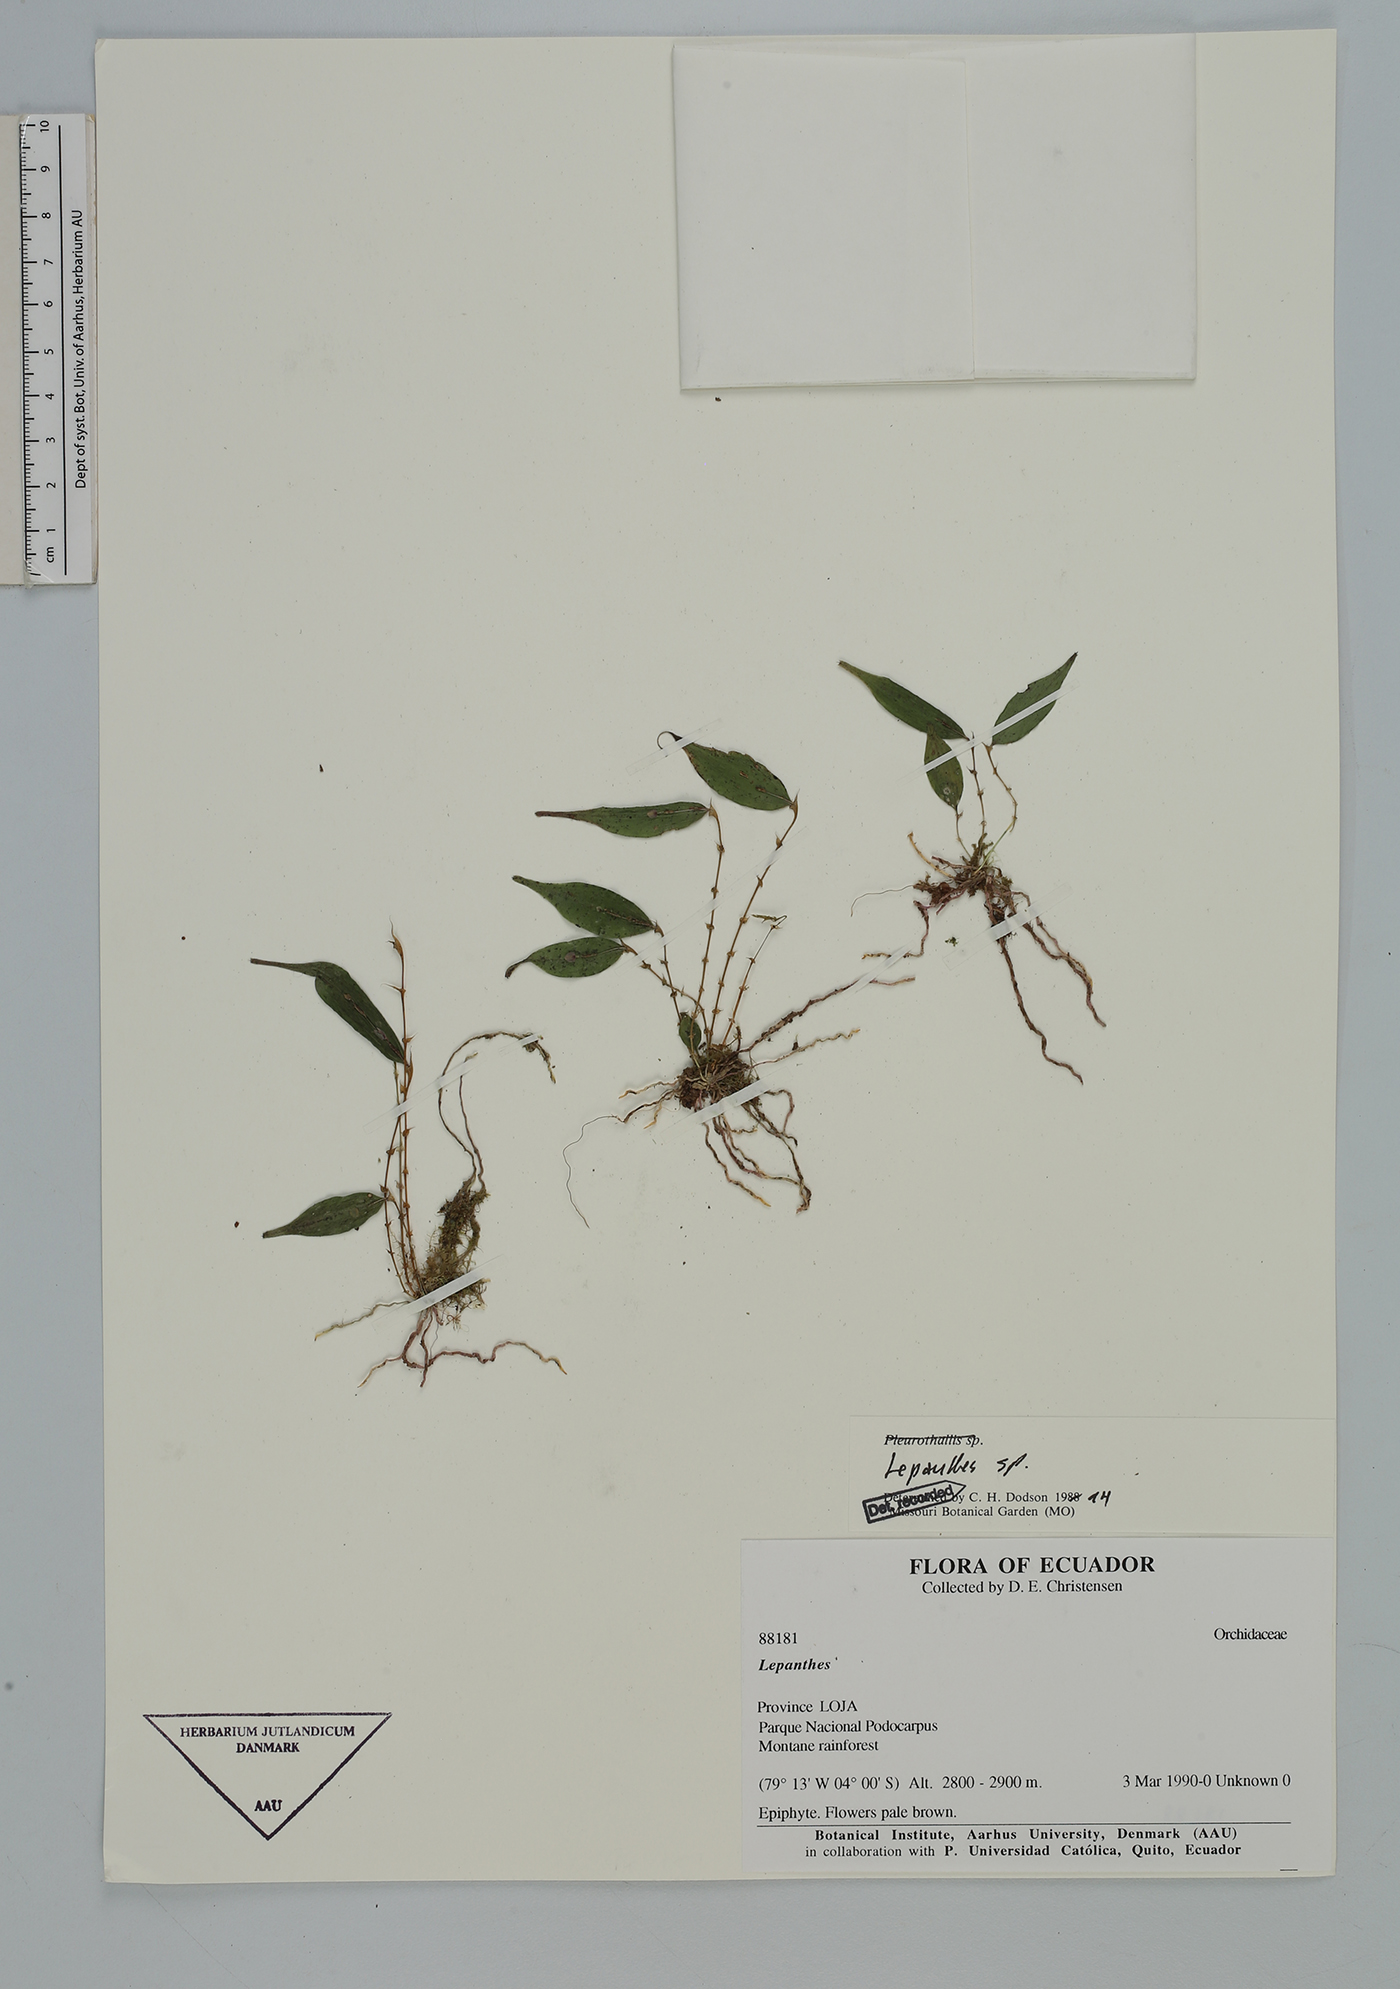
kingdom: Plantae
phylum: Tracheophyta
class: Liliopsida
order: Asparagales
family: Orchidaceae
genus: Lepanthes
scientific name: Lepanthes
